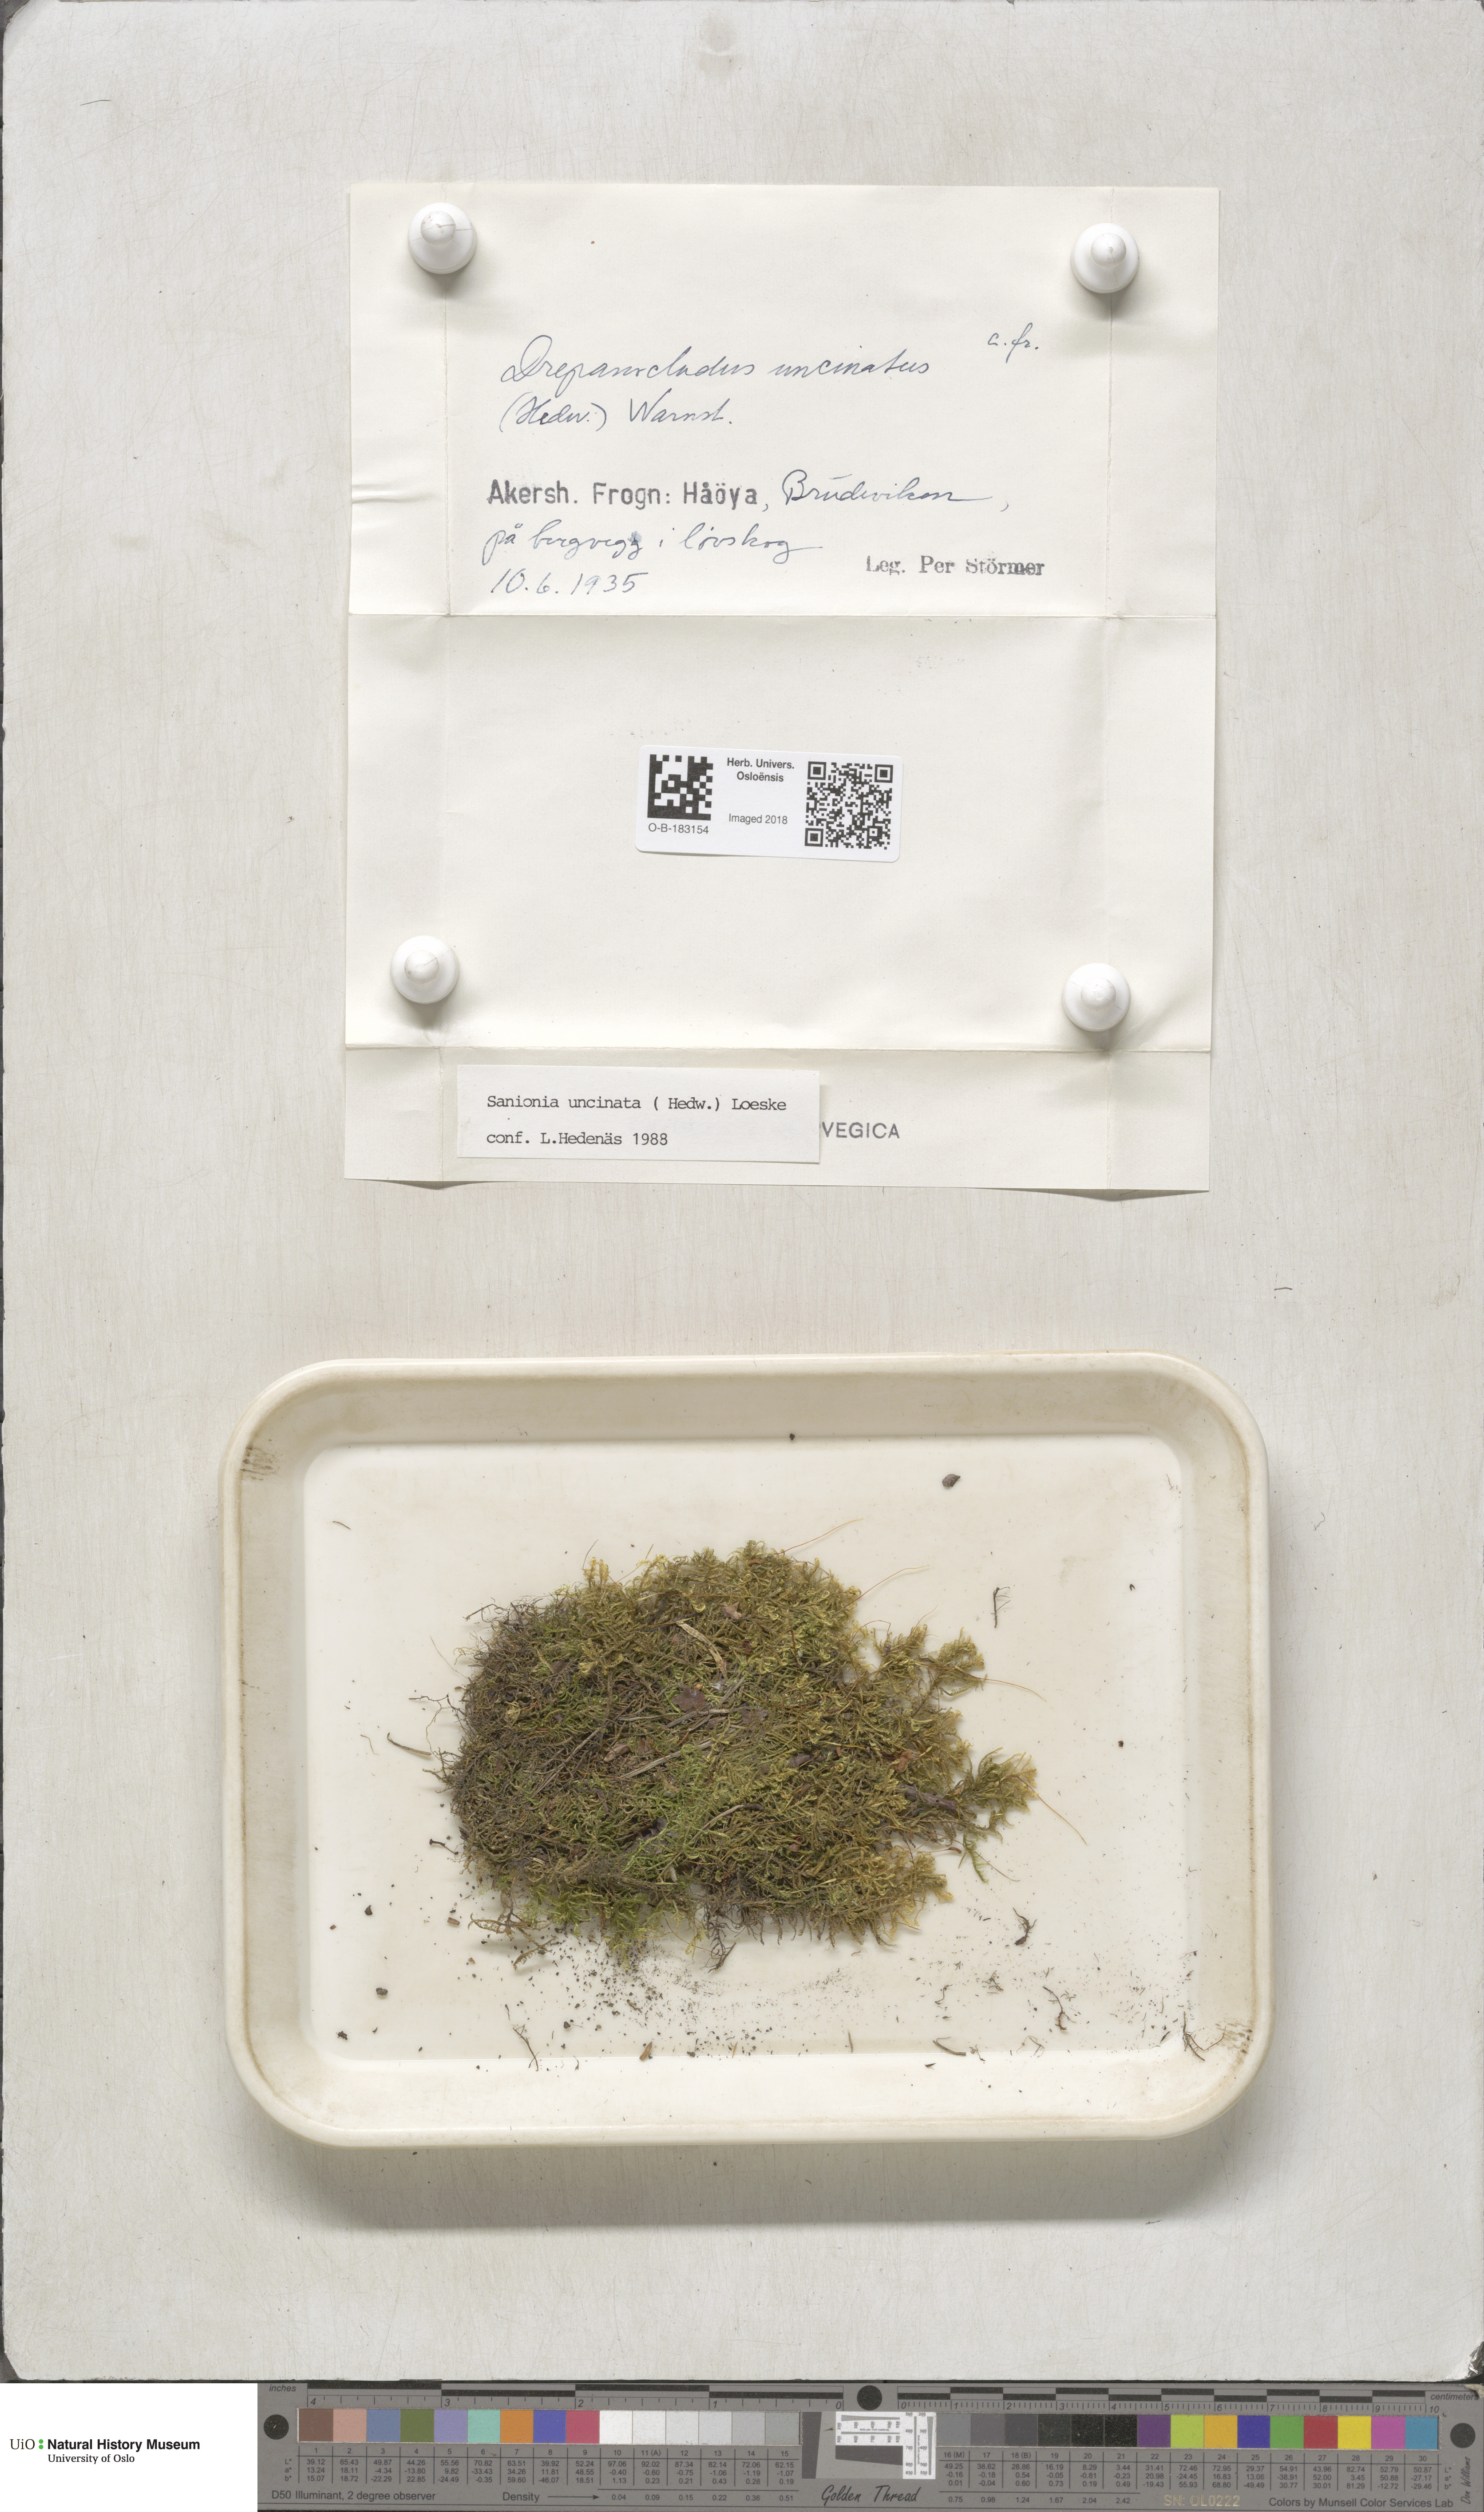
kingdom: Plantae
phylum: Bryophyta
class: Bryopsida
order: Hypnales
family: Scorpidiaceae
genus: Sanionia
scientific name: Sanionia uncinata
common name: Sickle moss
